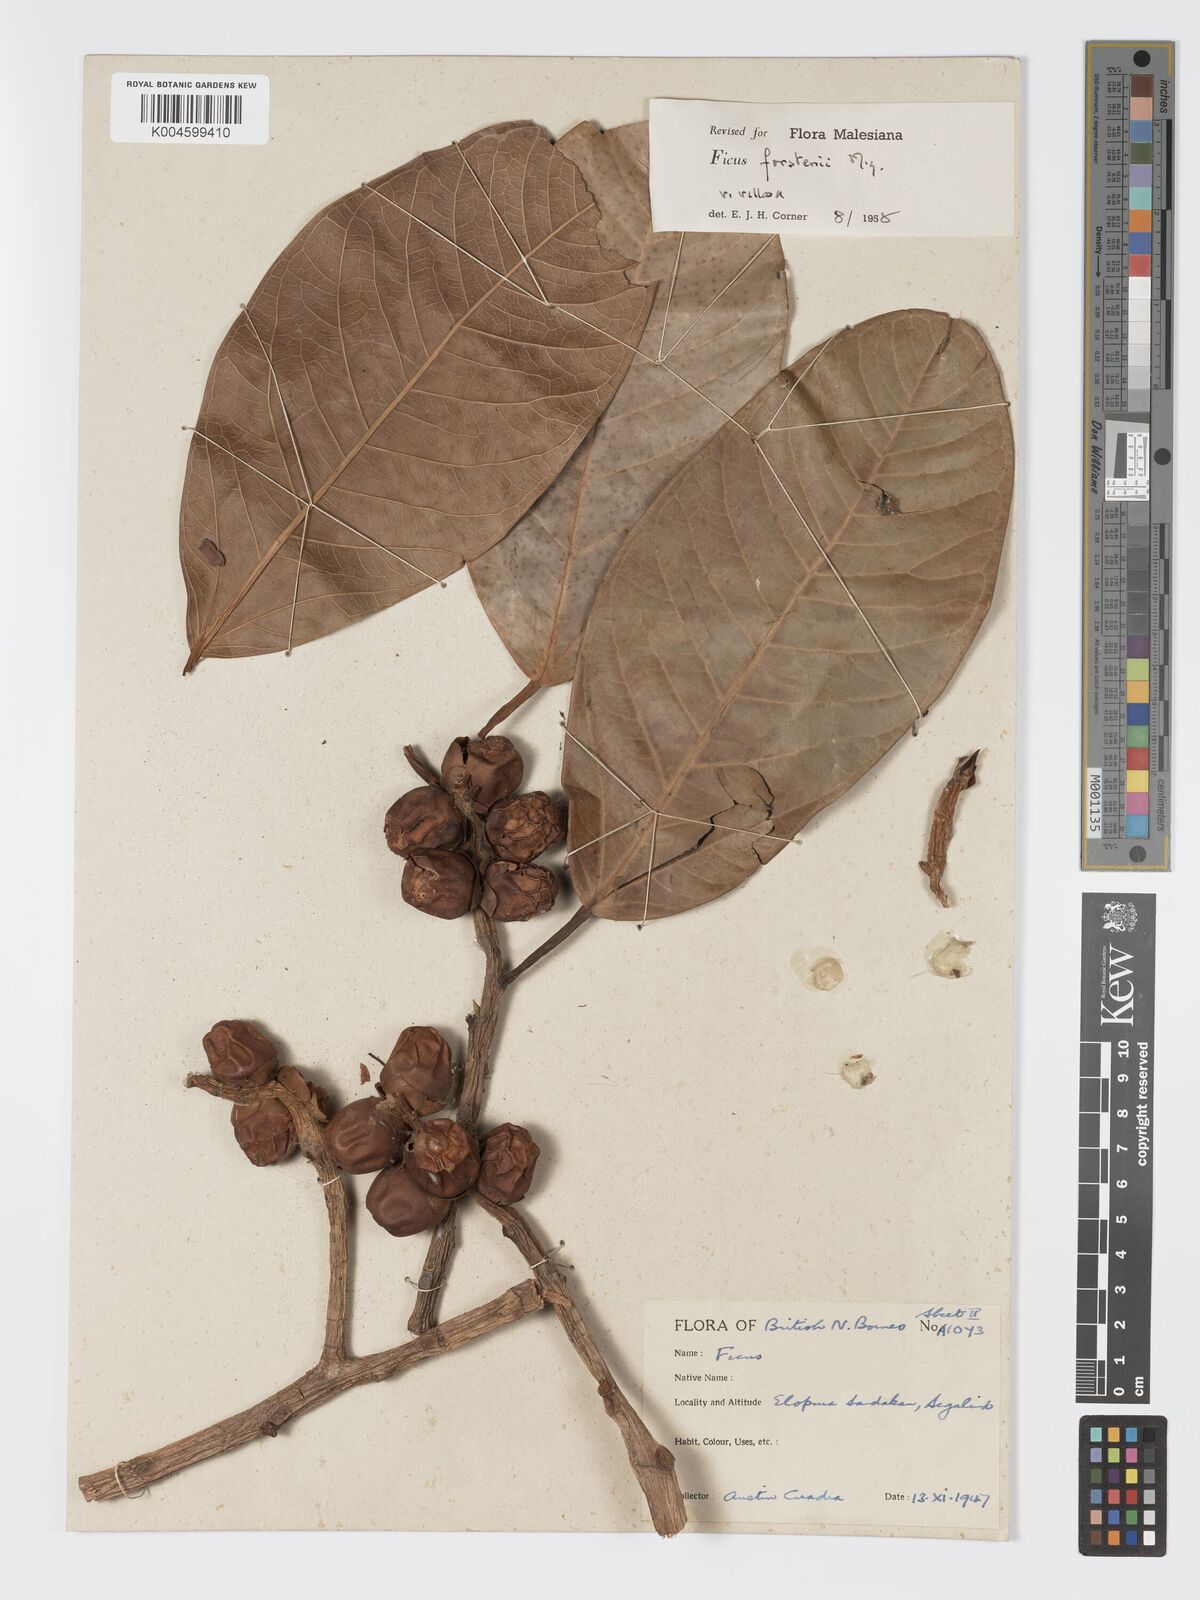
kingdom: Plantae
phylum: Tracheophyta
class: Magnoliopsida
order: Rosales
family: Moraceae
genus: Ficus
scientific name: Ficus forstenii
